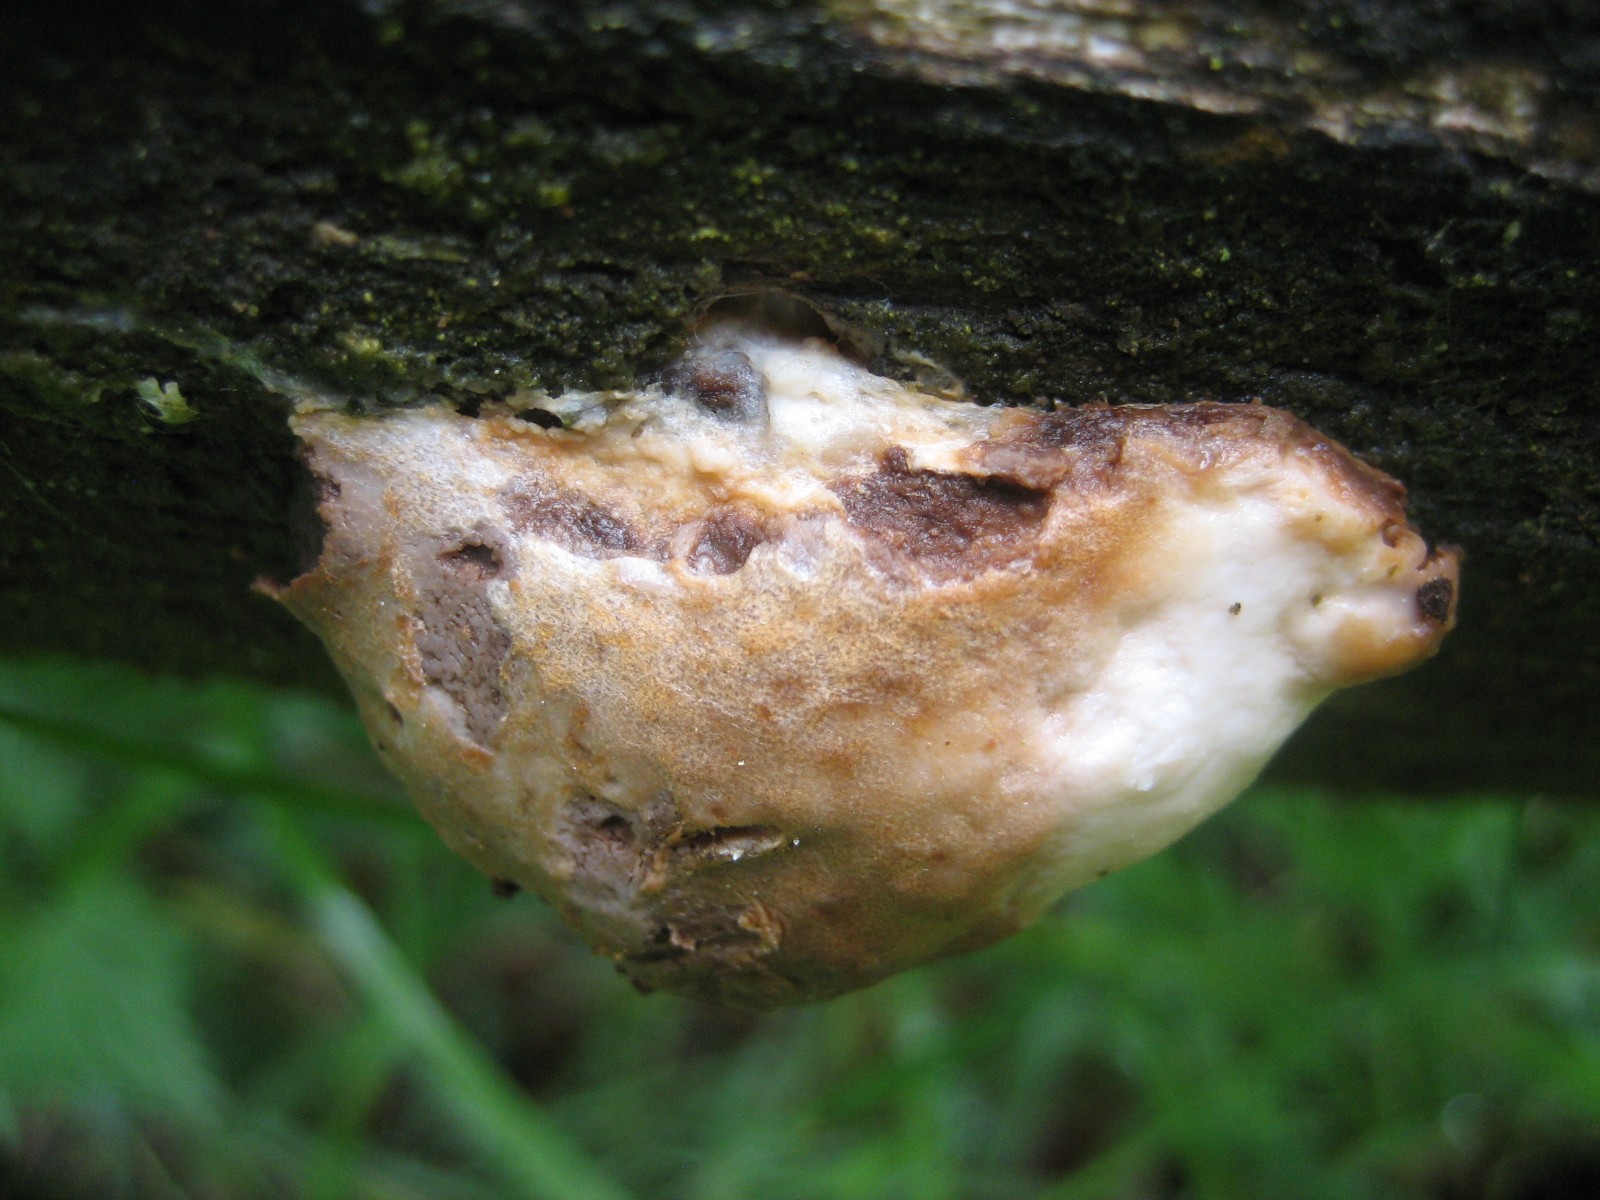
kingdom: Protozoa
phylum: Mycetozoa
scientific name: Mycetozoa
